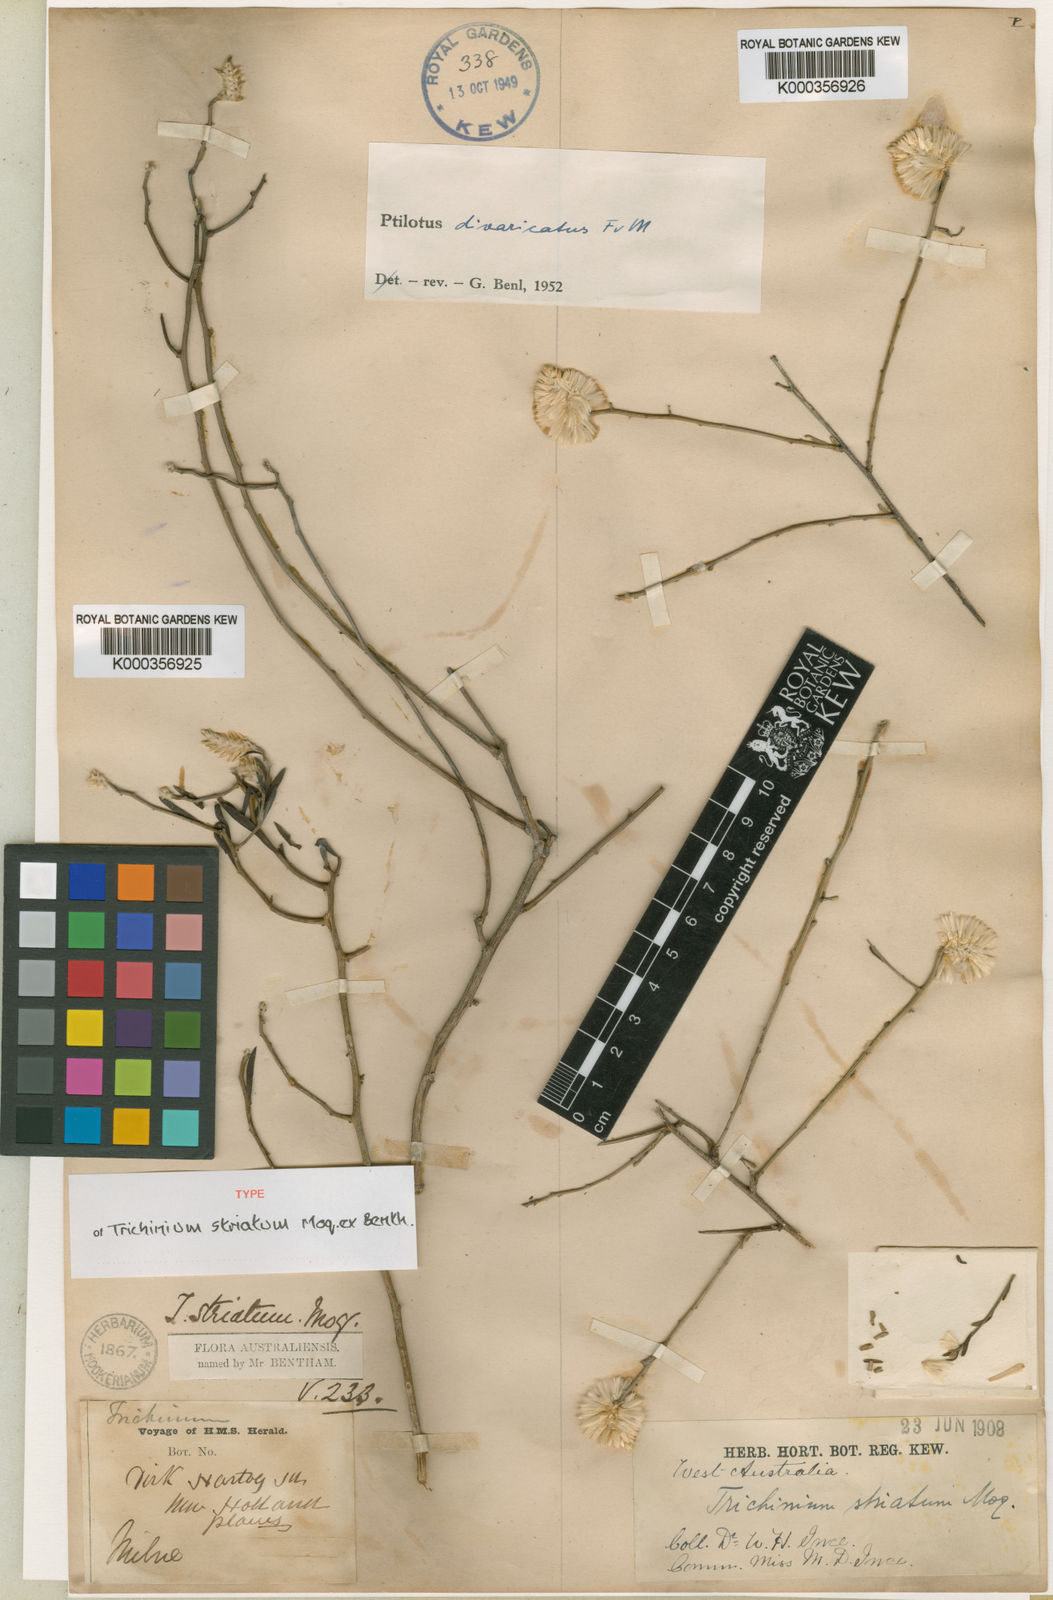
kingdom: Plantae
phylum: Tracheophyta
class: Magnoliopsida
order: Caryophyllales
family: Amaranthaceae
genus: Ptilotus
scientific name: Ptilotus divaricatus
